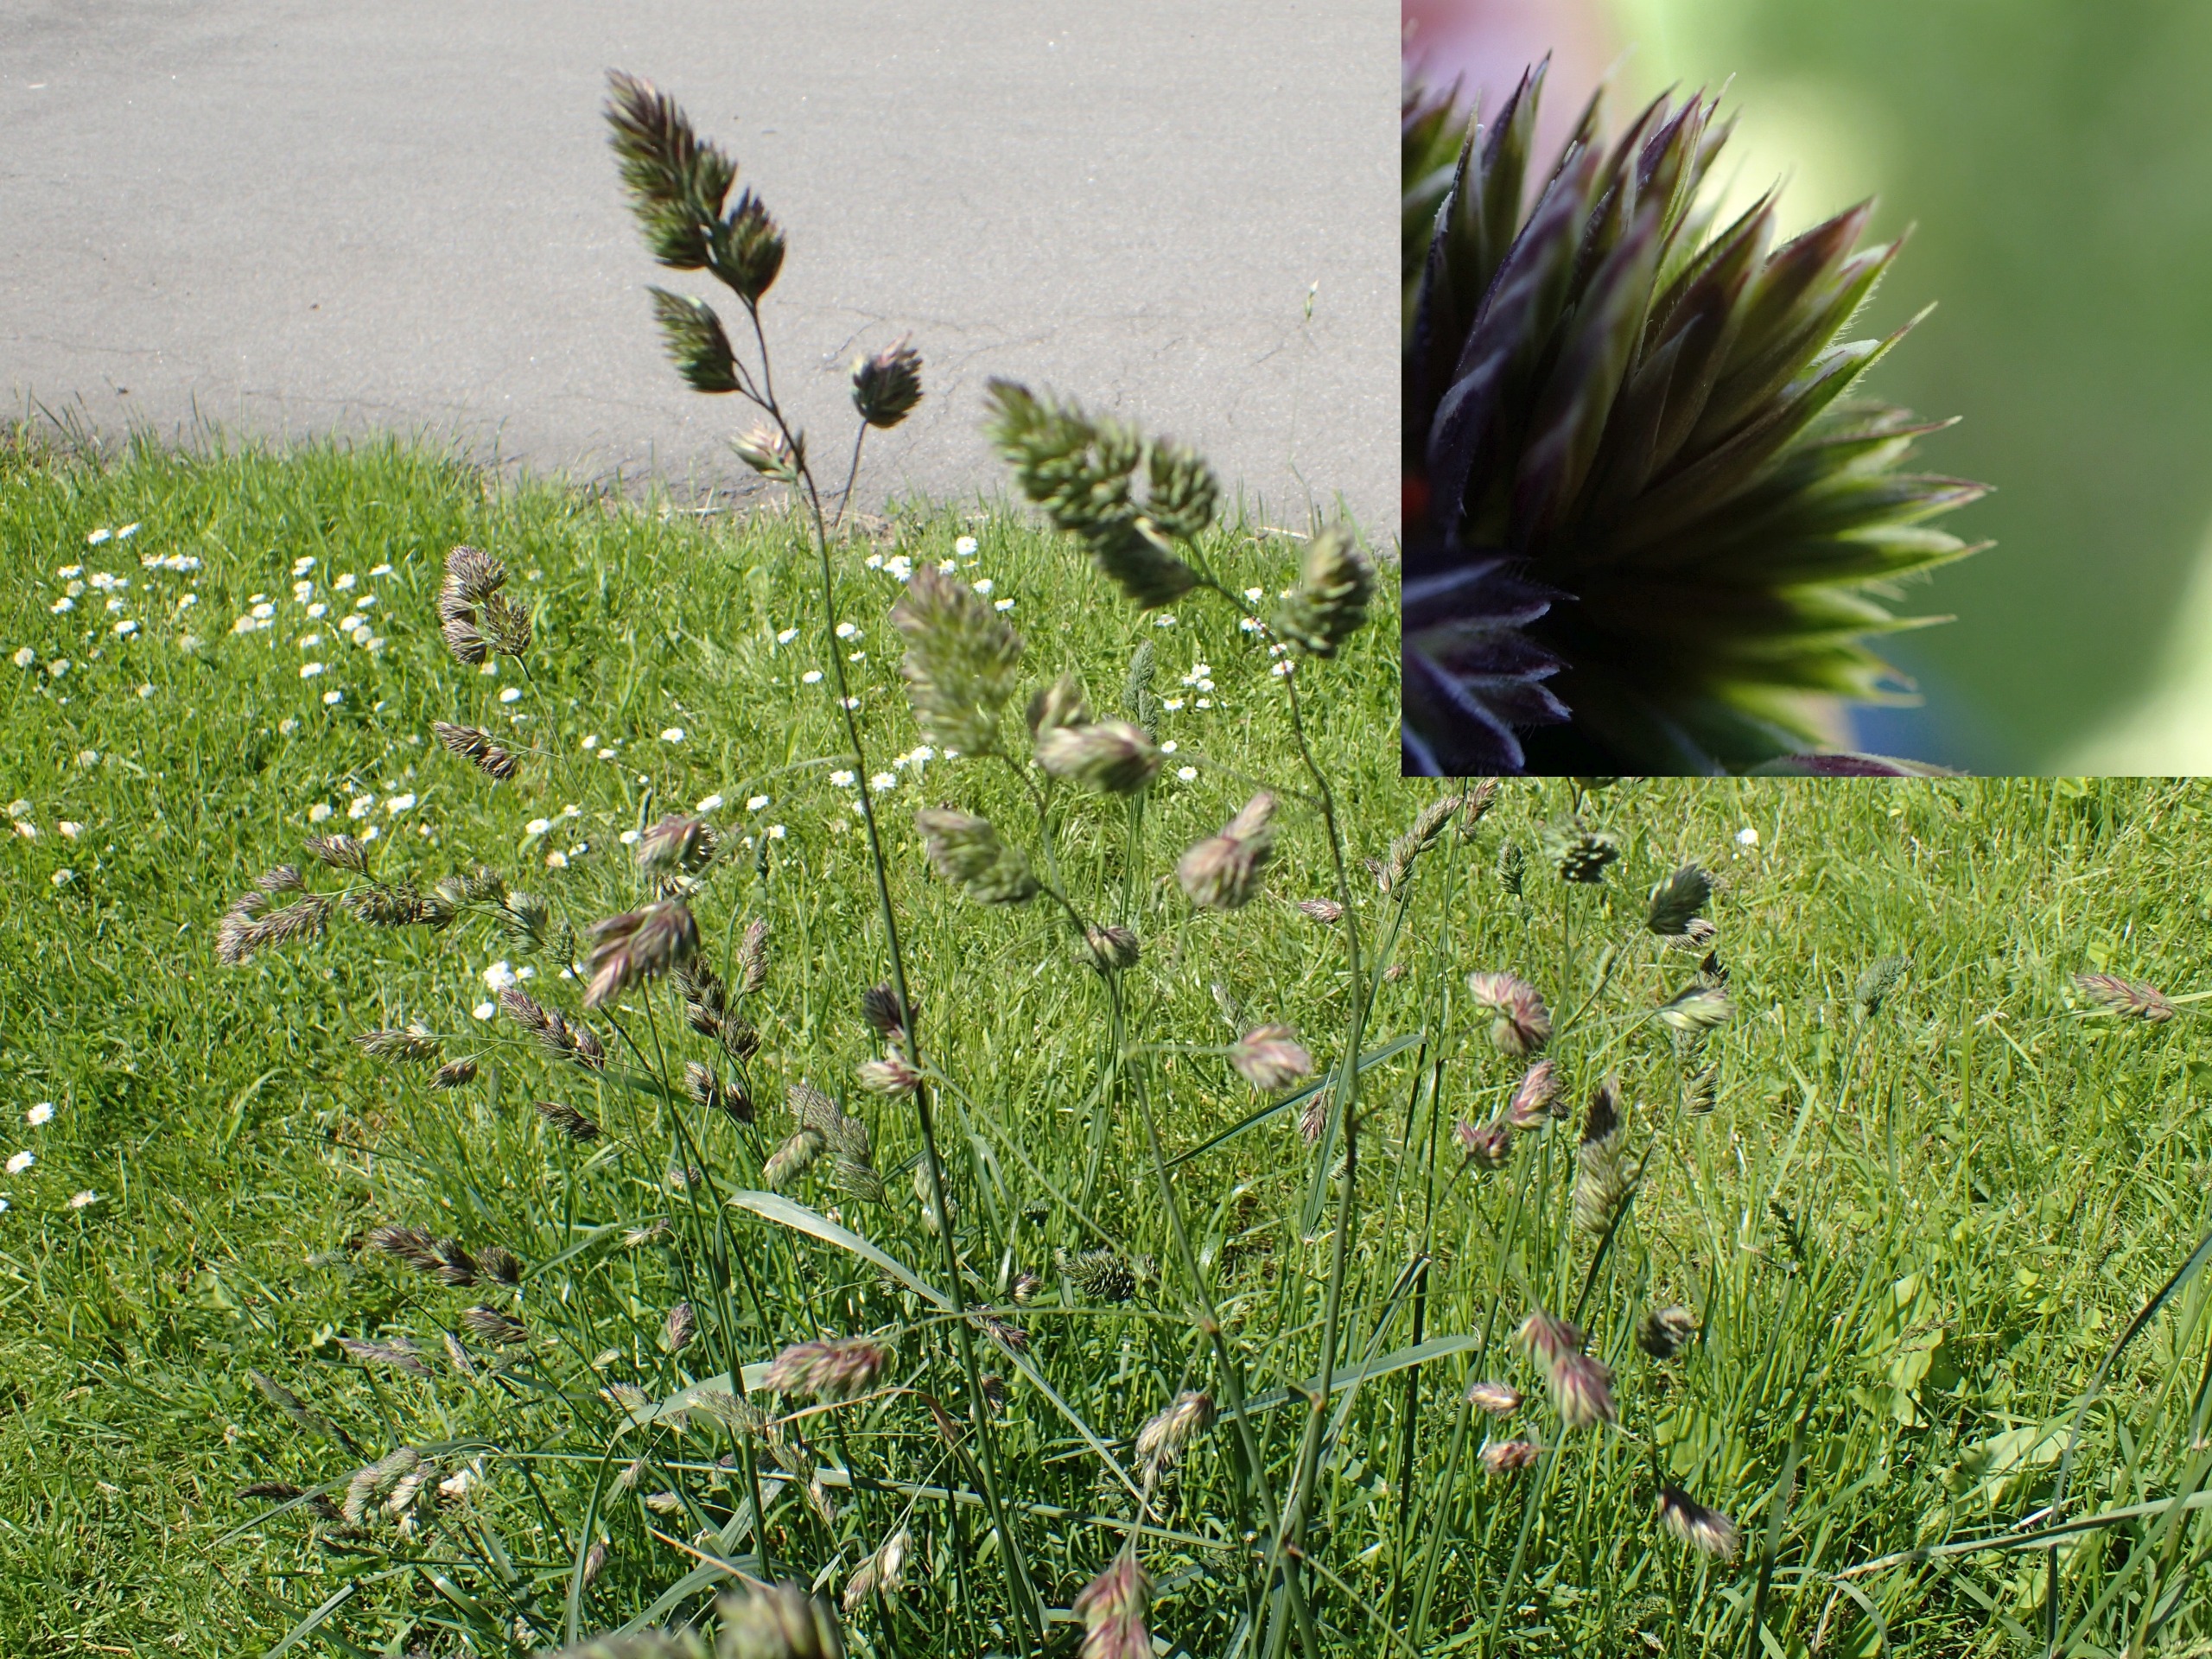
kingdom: Plantae
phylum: Tracheophyta
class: Liliopsida
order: Poales
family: Poaceae
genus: Dactylis
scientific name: Dactylis glomerata
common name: Almindelig hundegræs
